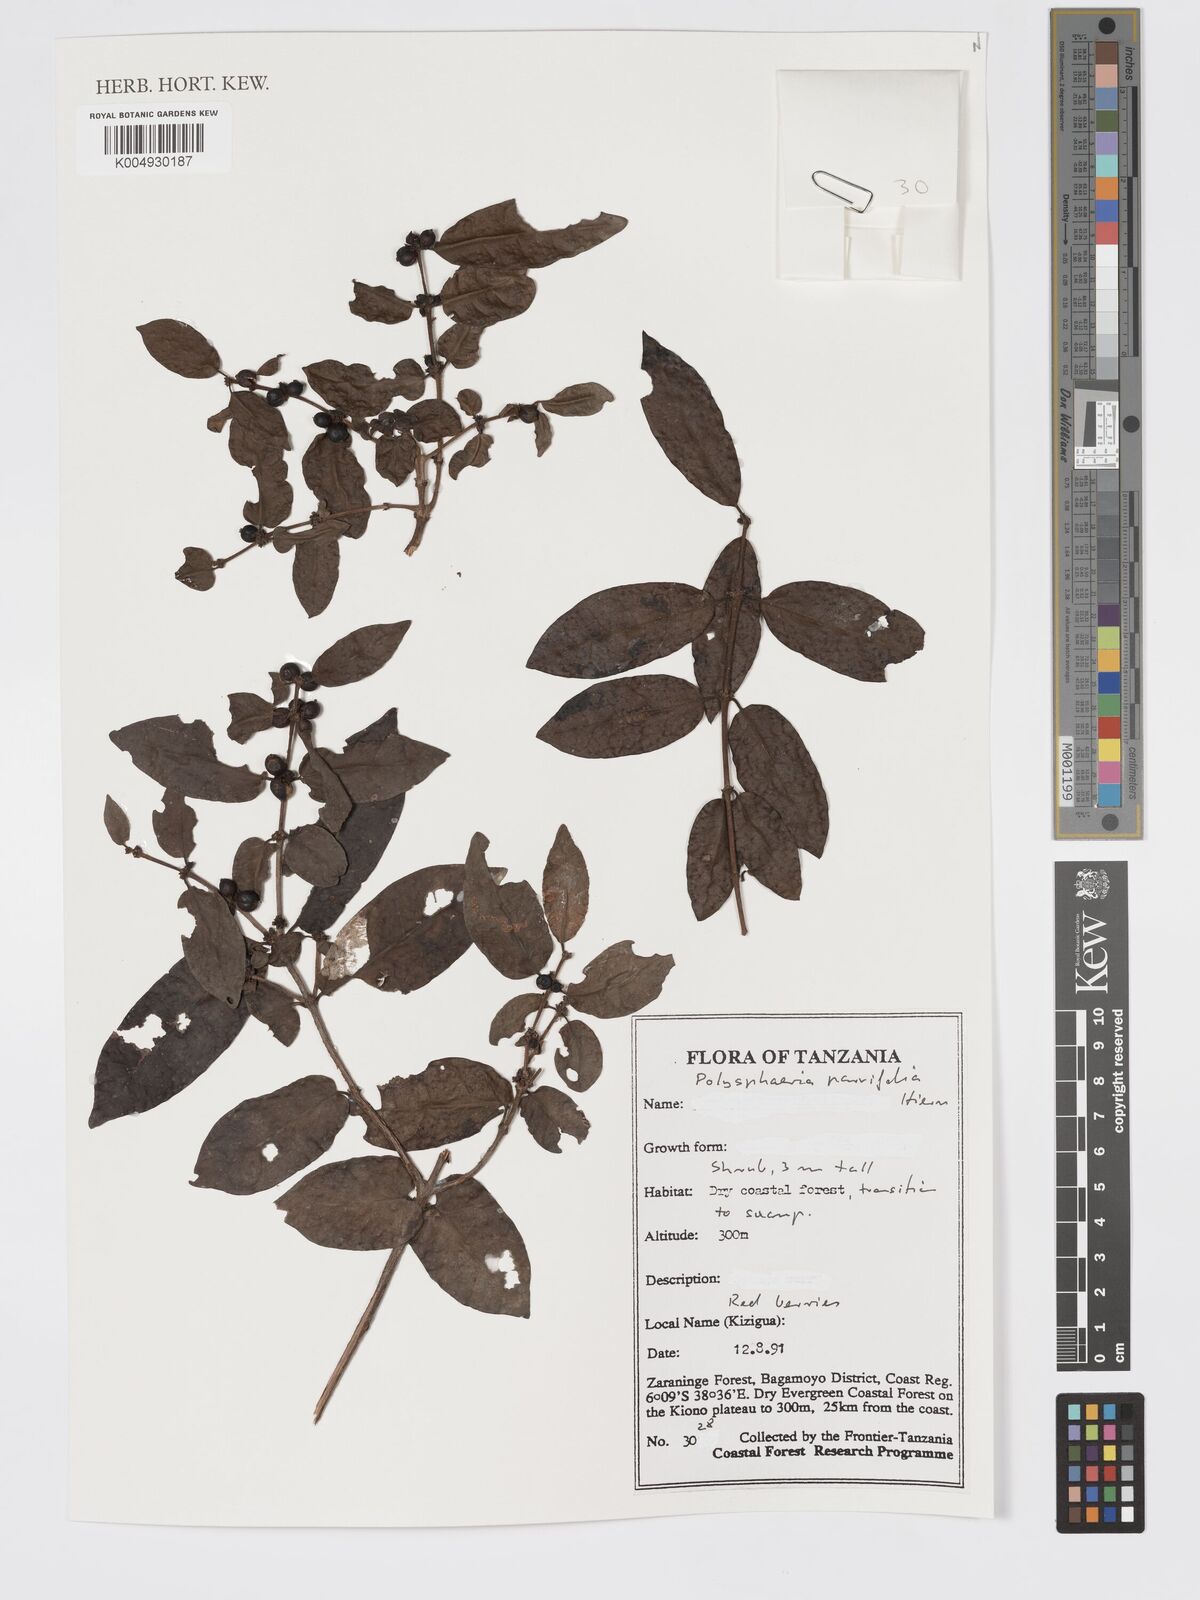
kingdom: Plantae
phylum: Tracheophyta
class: Magnoliopsida
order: Gentianales
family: Rubiaceae
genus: Polysphaeria
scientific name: Polysphaeria parvifolia
